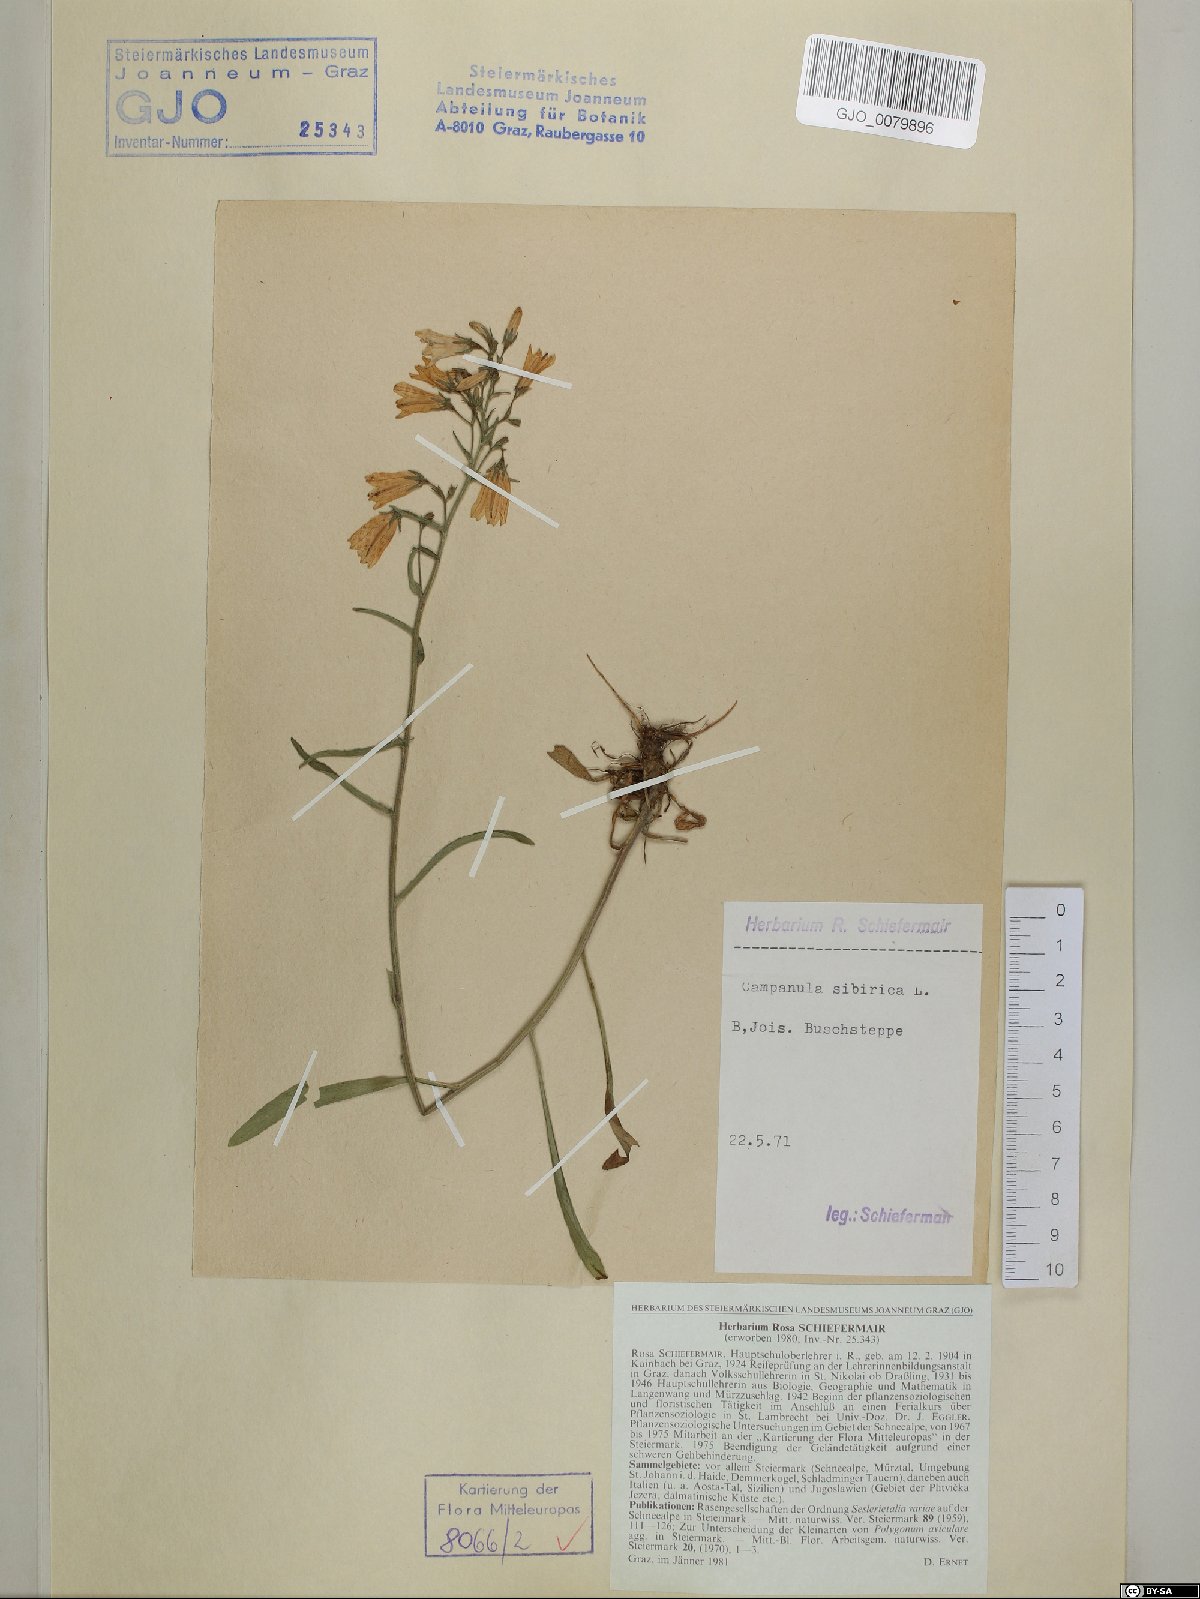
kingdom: Plantae
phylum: Tracheophyta
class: Magnoliopsida
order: Asterales
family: Campanulaceae
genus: Campanula
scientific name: Campanula sibirica
